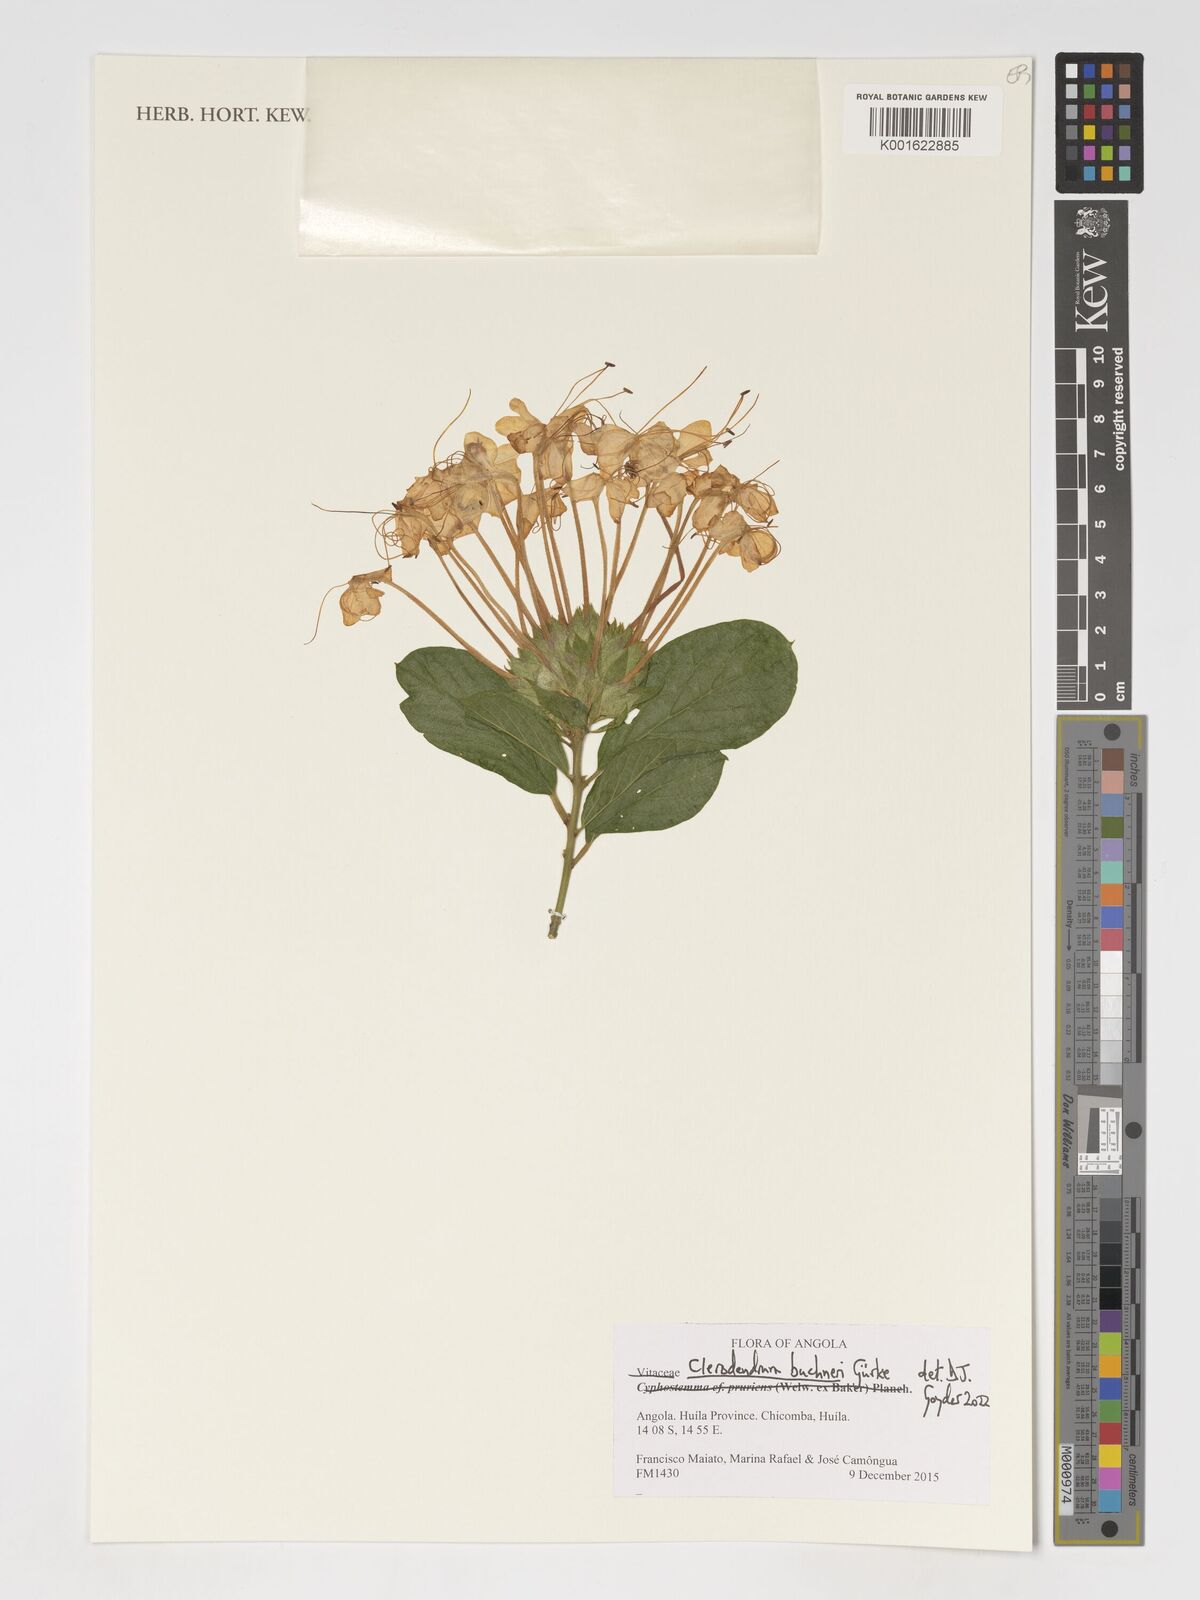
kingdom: Plantae
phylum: Tracheophyta
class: Magnoliopsida
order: Lamiales
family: Lamiaceae
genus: Clerodendrum
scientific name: Clerodendrum buchneri
